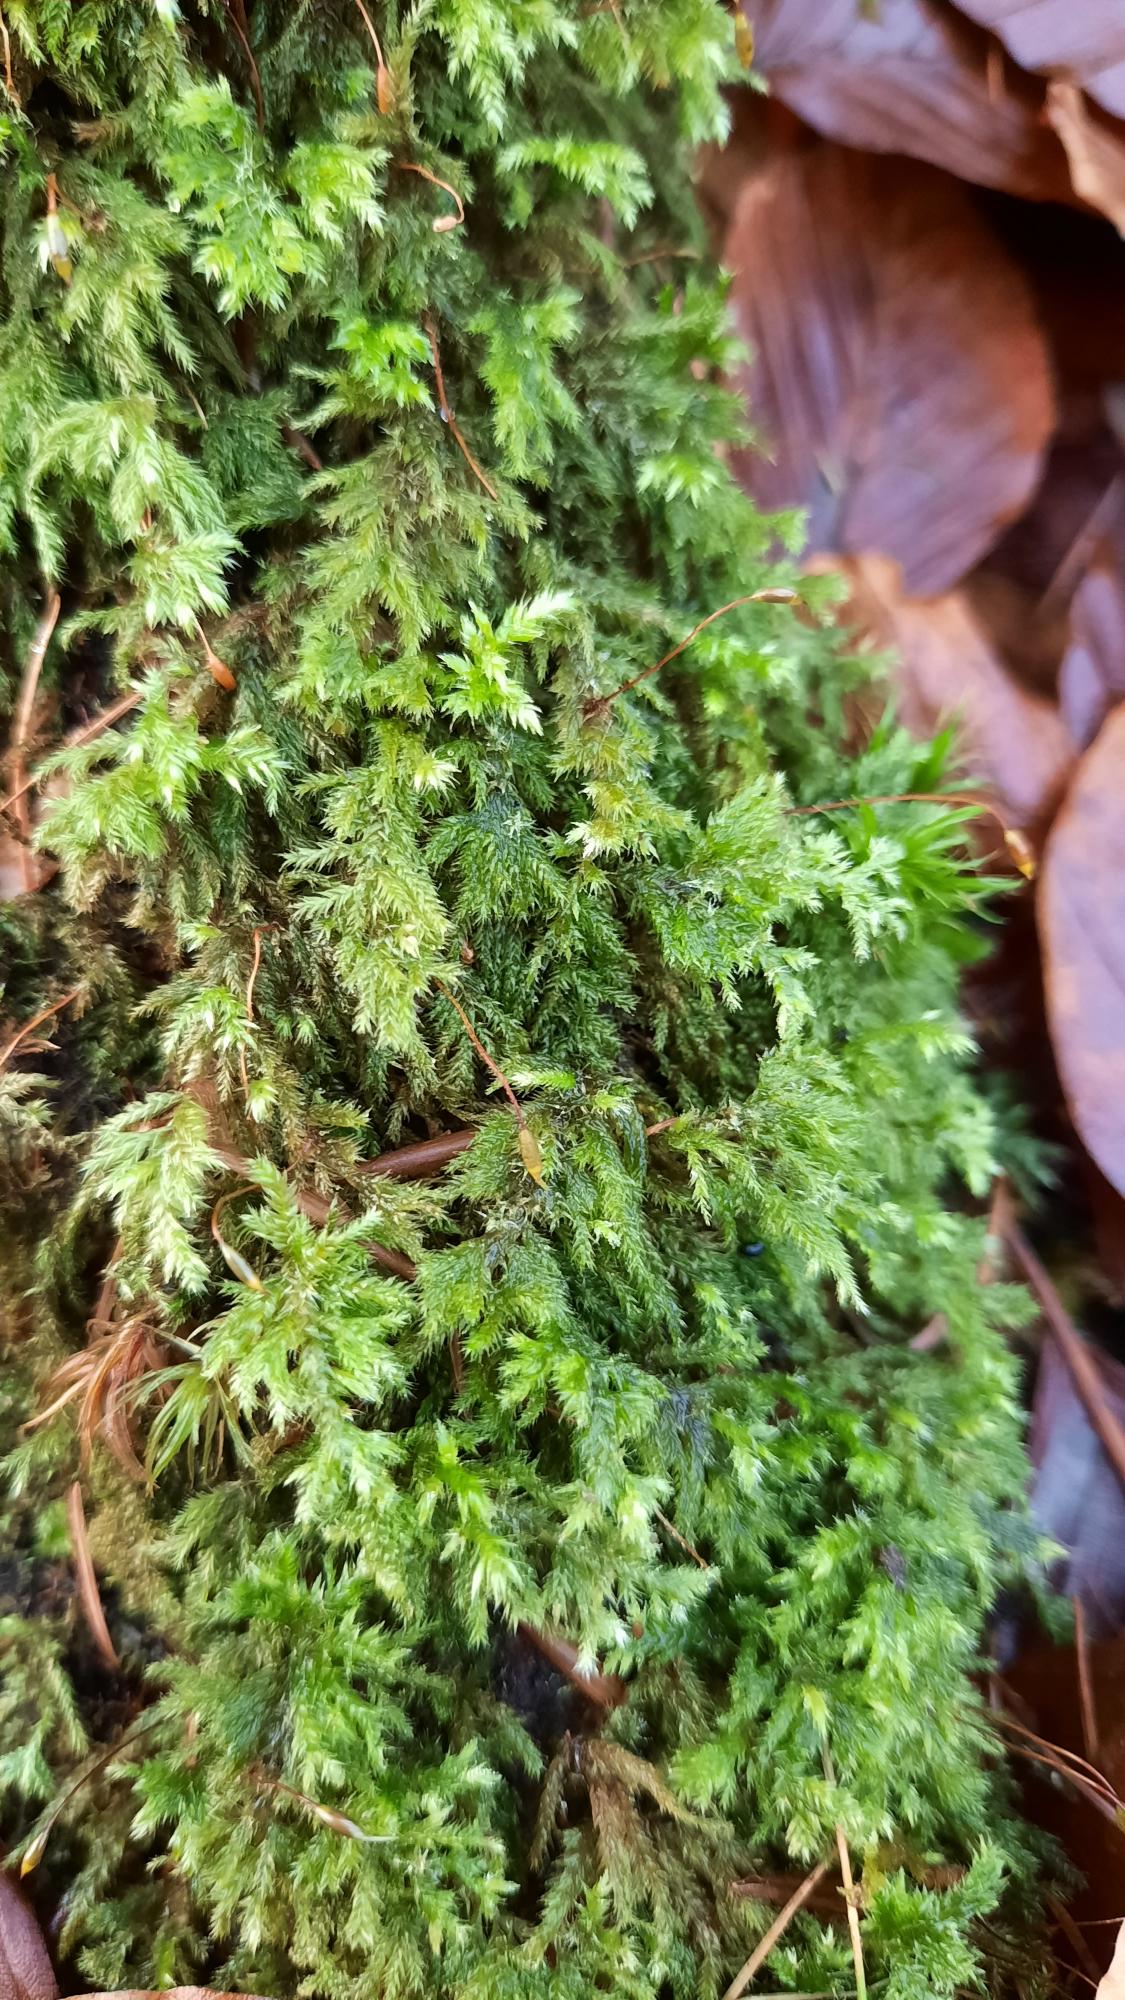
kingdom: Plantae
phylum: Bryophyta
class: Bryopsida
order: Hypnales
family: Lembophyllaceae
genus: Pseudisothecium
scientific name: Pseudisothecium myosuroides
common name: Slank stammemos
